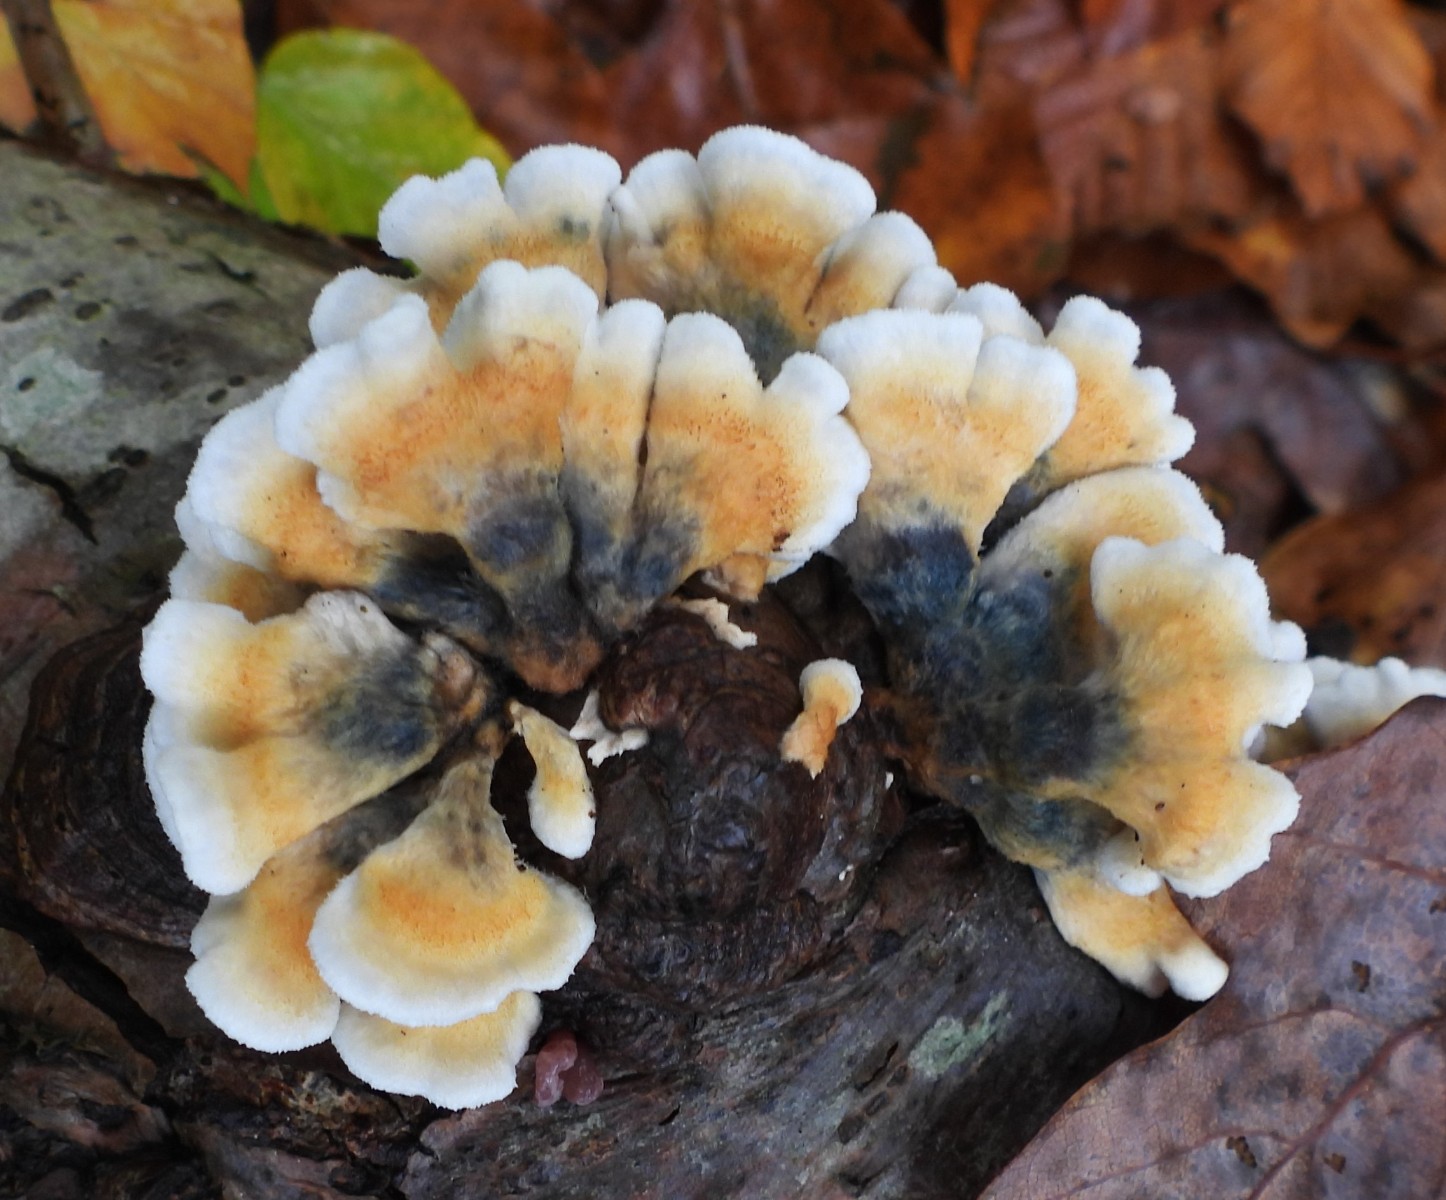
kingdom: Fungi
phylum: Basidiomycota
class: Agaricomycetes
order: Amylocorticiales
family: Amylocorticiaceae
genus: Plicaturopsis
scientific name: Plicaturopsis crispa
